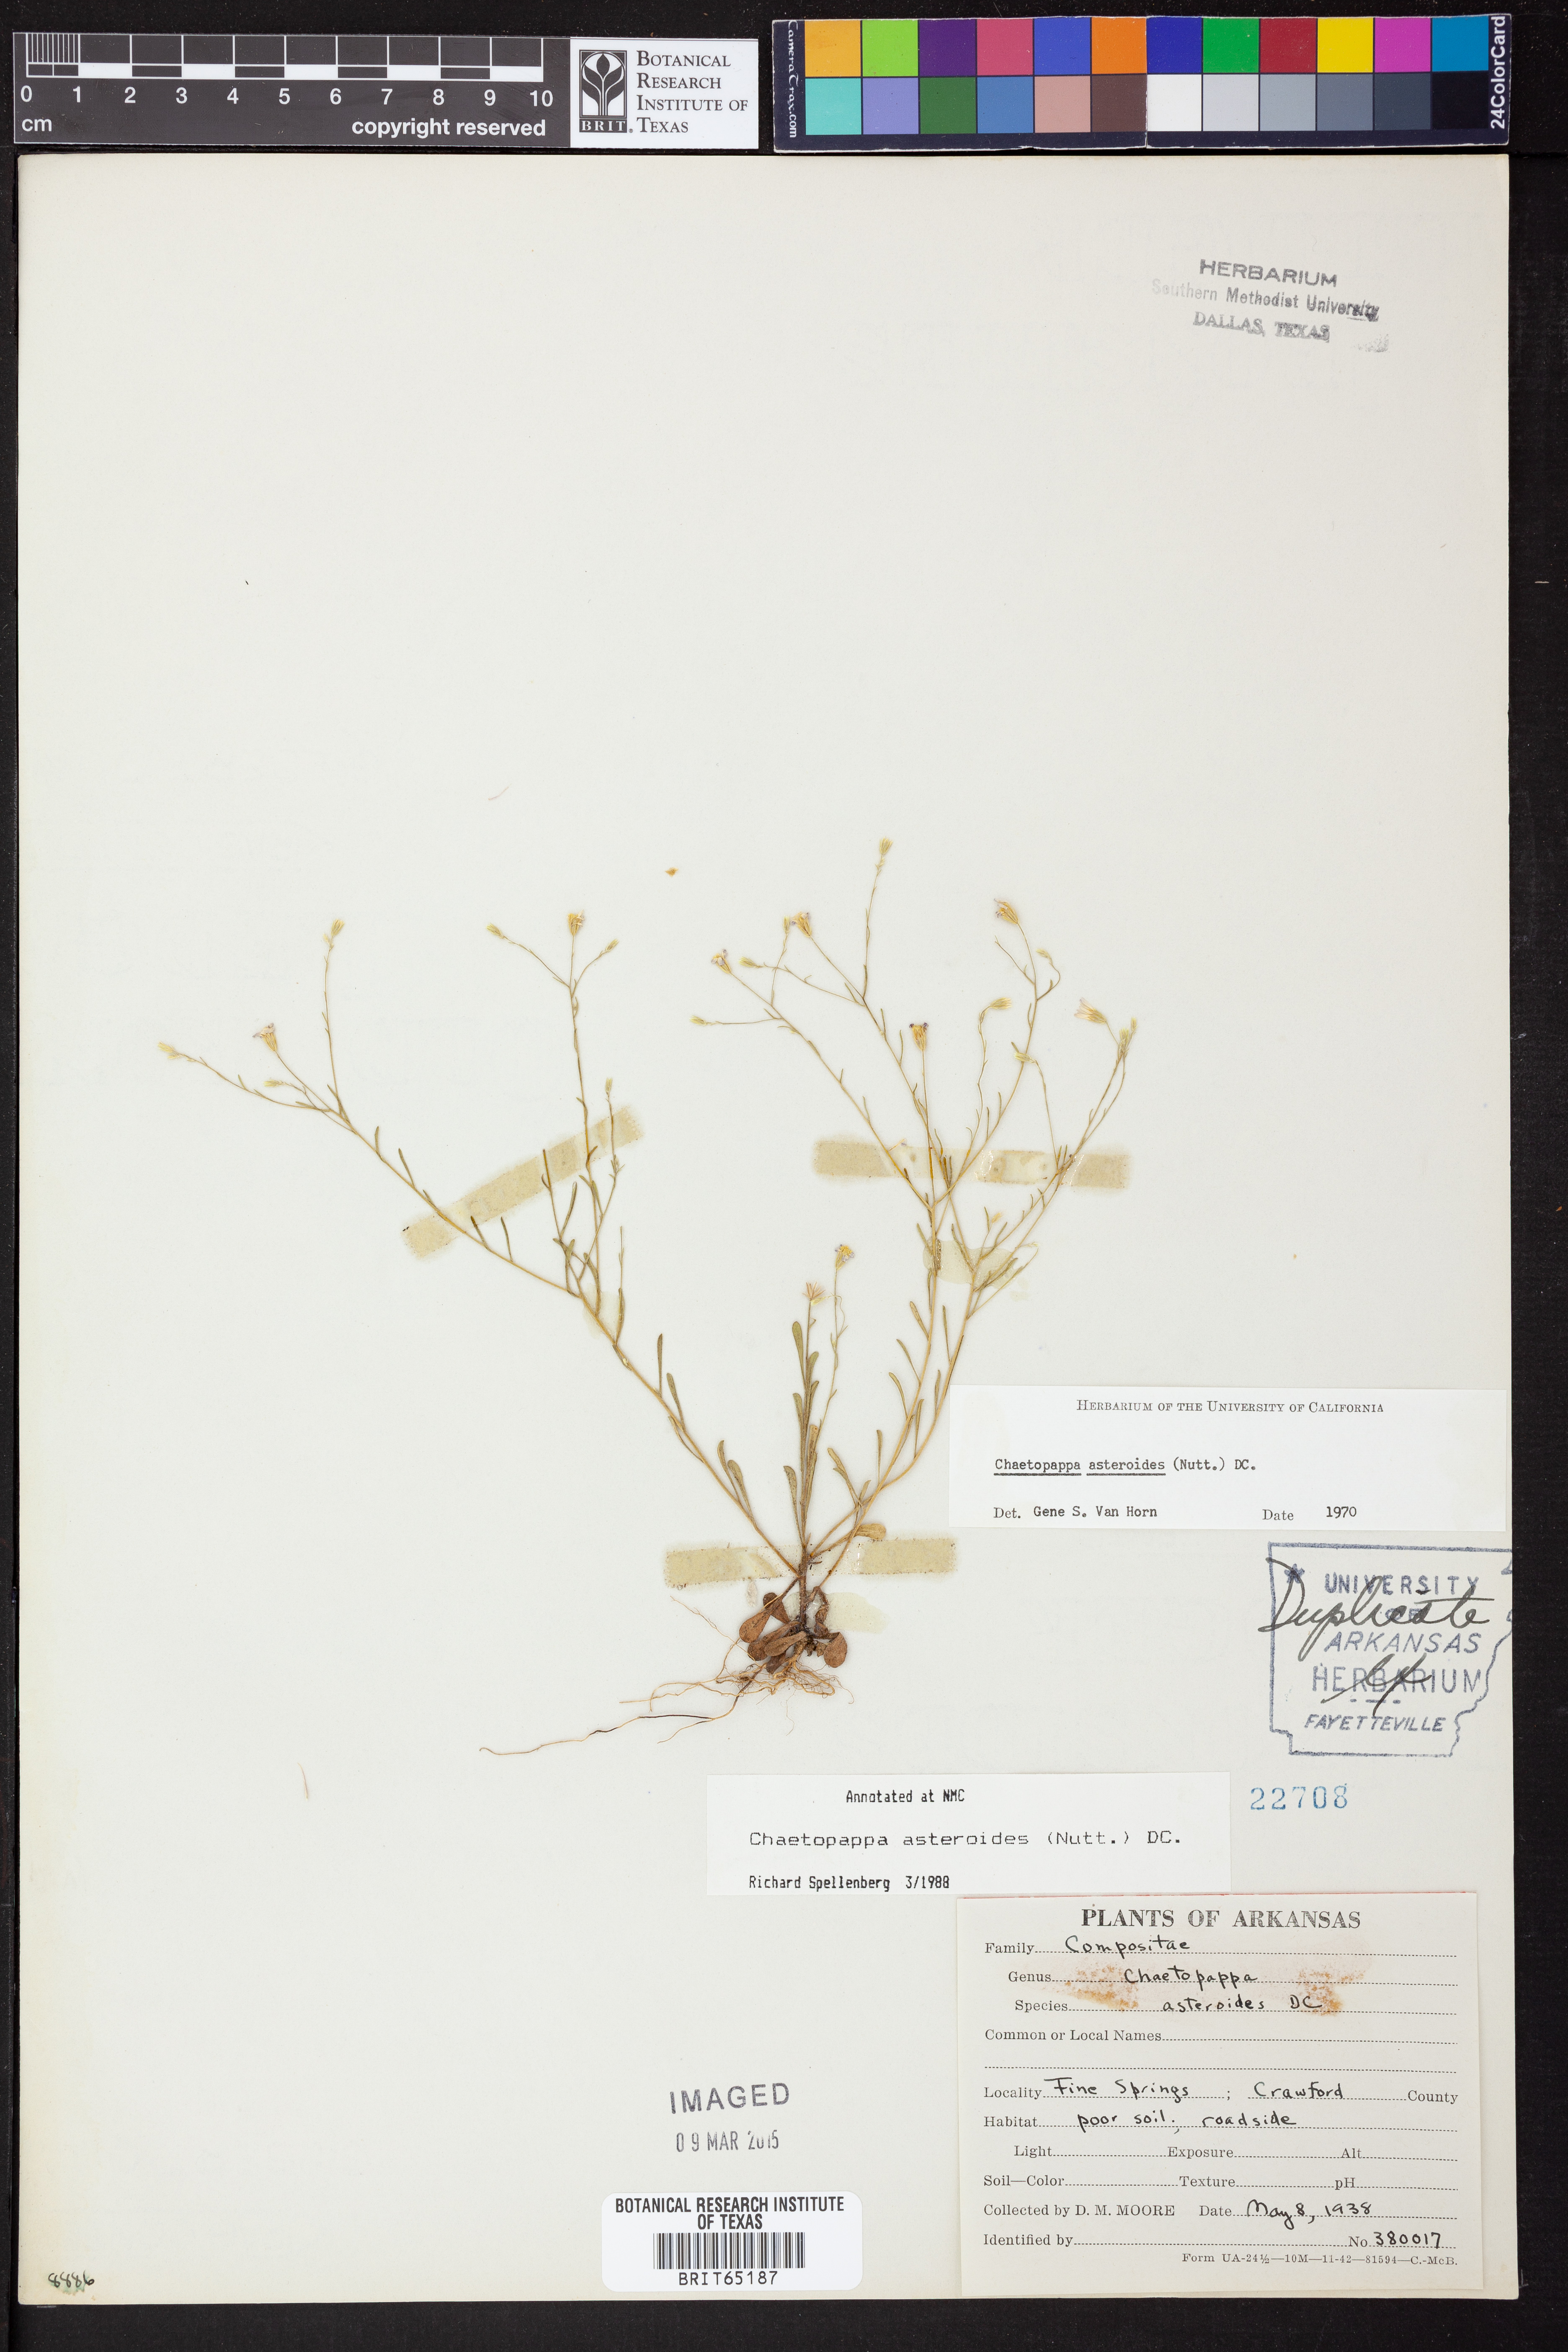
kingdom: Plantae
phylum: Tracheophyta
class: Magnoliopsida
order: Asterales
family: Asteraceae
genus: Chaetopappa
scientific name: Chaetopappa asteroides
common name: Tiny lazy daisy
